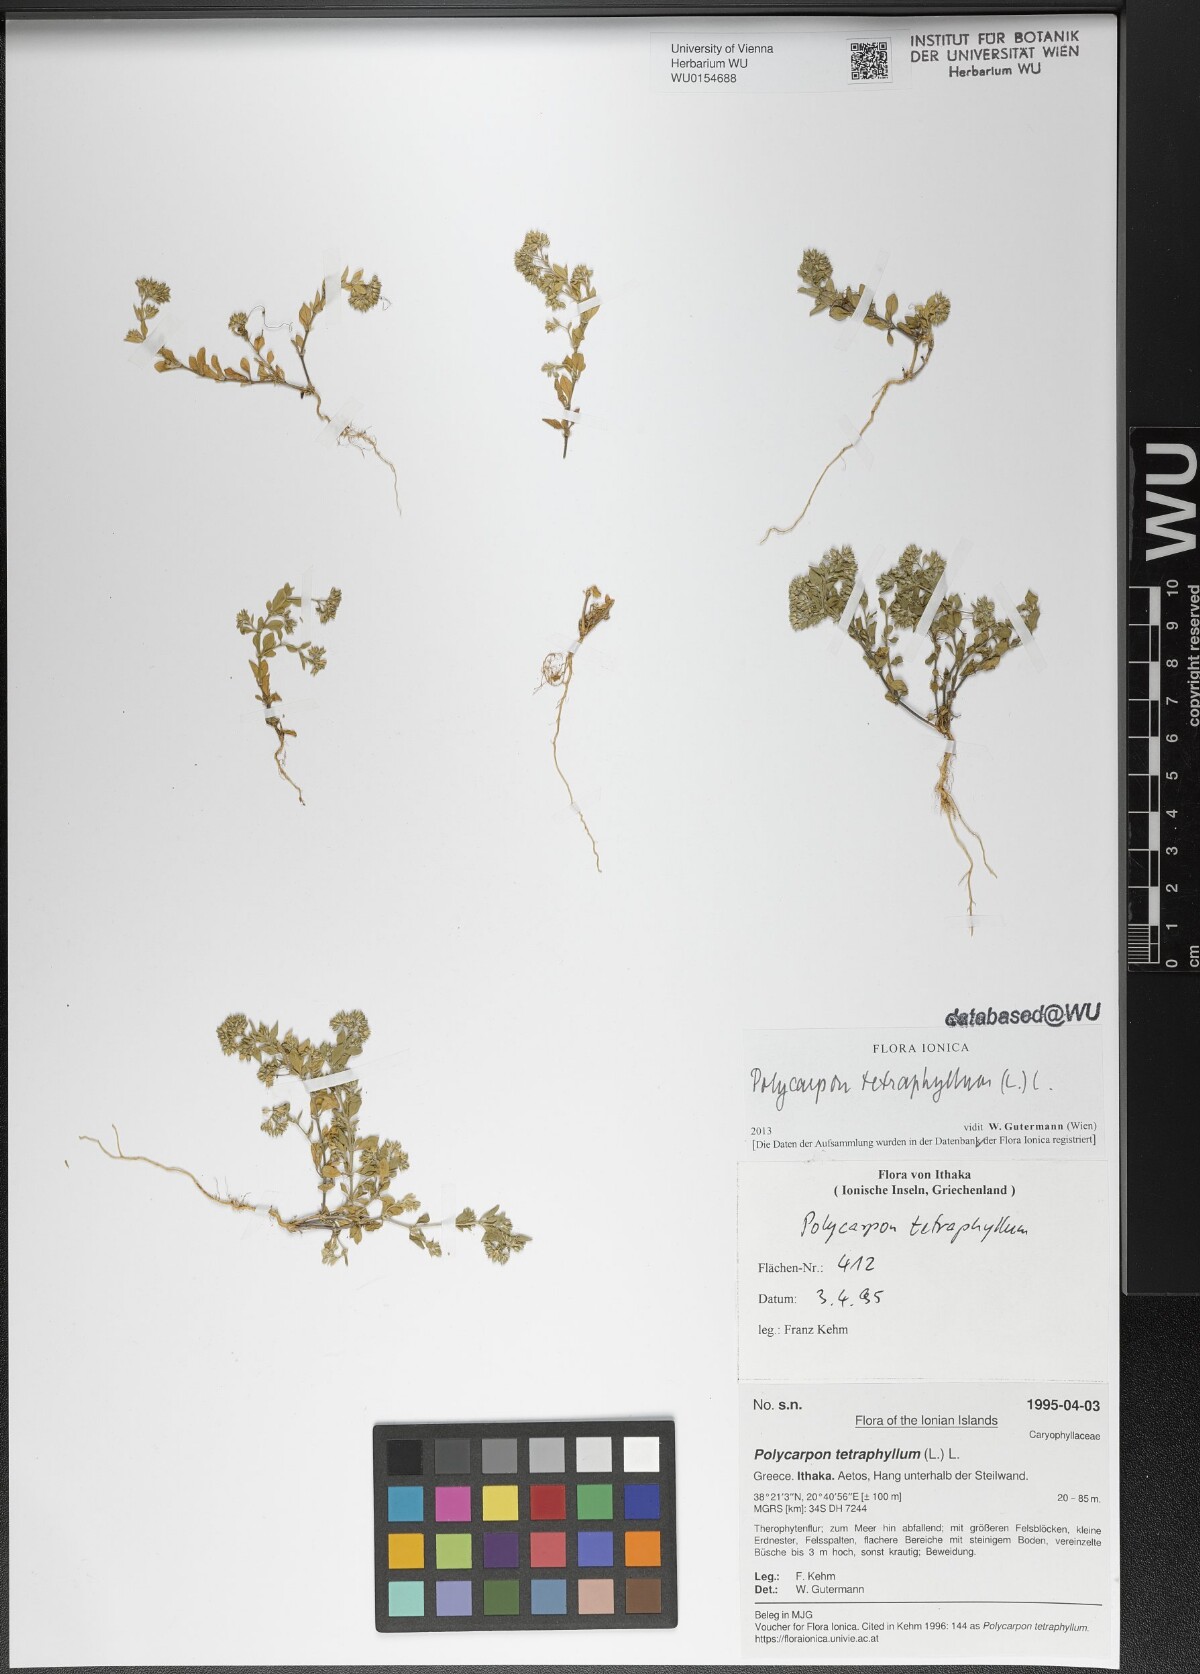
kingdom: Plantae
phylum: Tracheophyta
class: Magnoliopsida
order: Caryophyllales
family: Caryophyllaceae
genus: Polycarpon
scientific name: Polycarpon tetraphyllum
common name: Four-leaved all-seed
